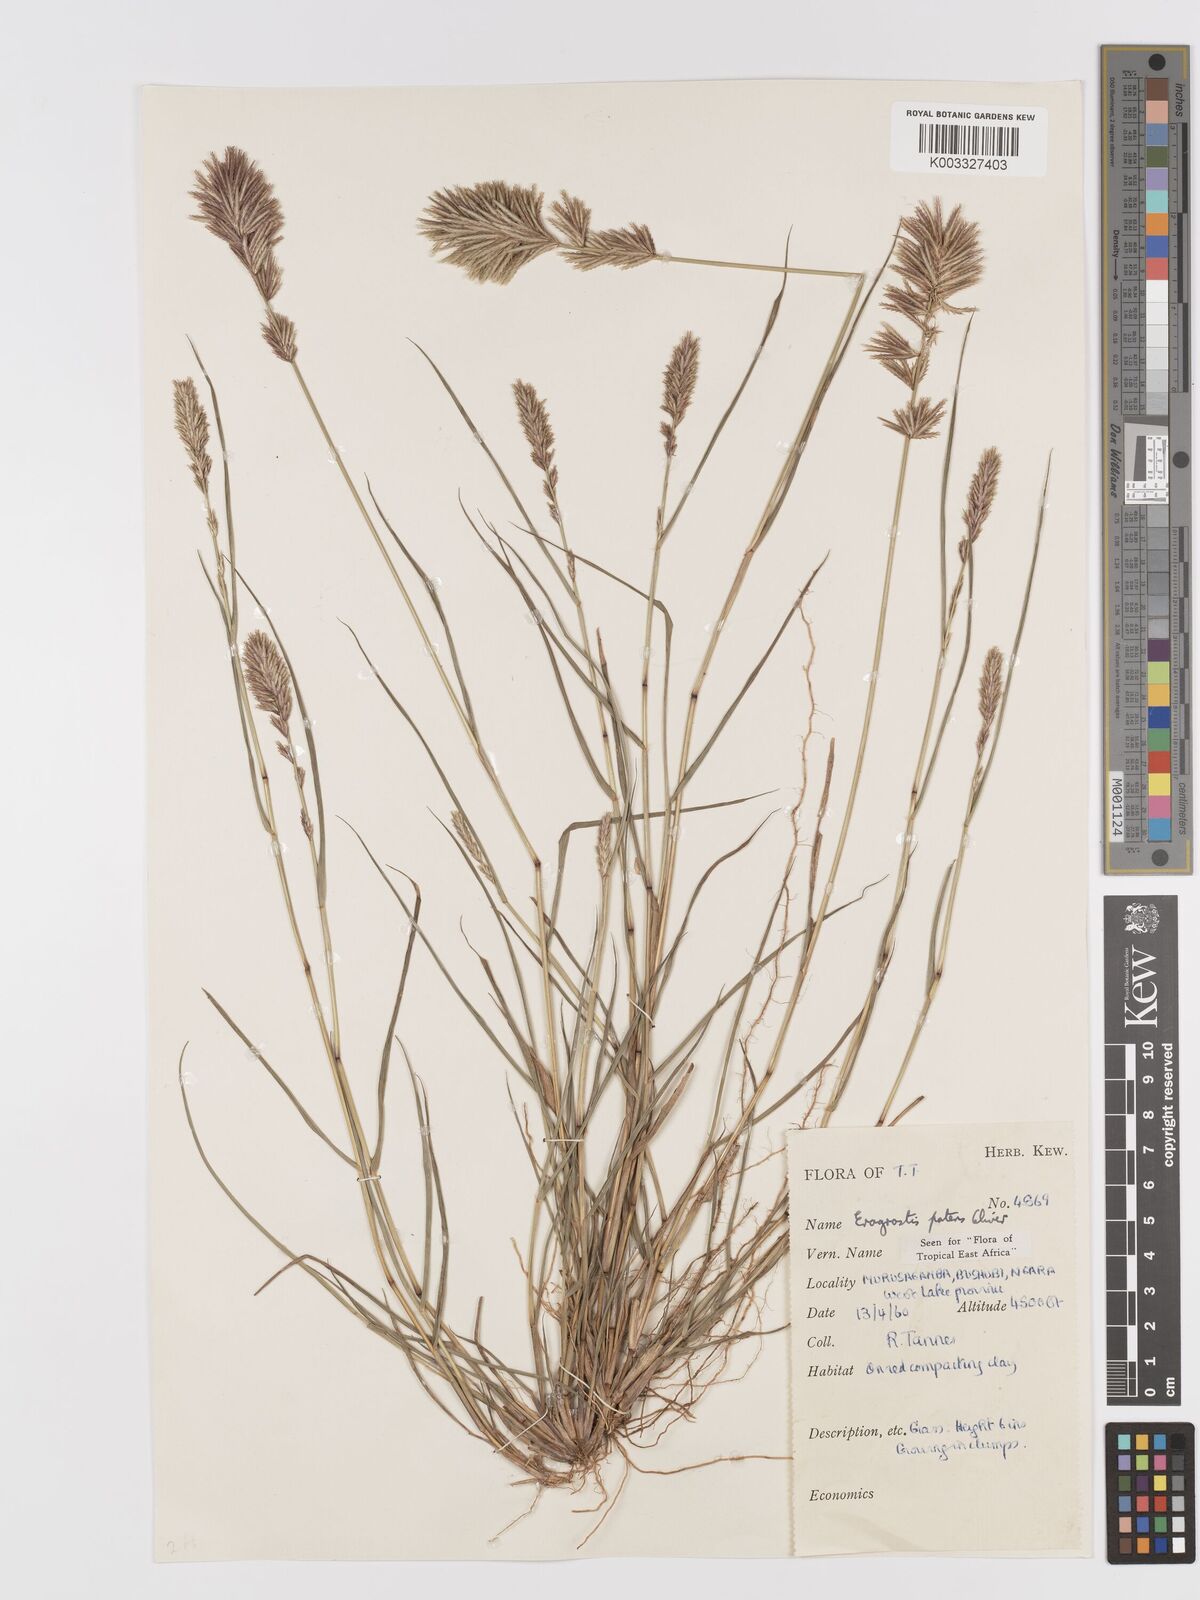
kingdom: Plantae
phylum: Tracheophyta
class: Liliopsida
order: Poales
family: Poaceae
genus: Eragrostis
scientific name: Eragrostis patens
